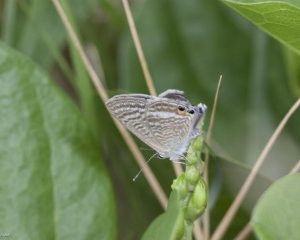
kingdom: Animalia
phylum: Arthropoda
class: Insecta
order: Lepidoptera
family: Lycaenidae
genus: Lampides
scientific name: Lampides boeticus
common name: Pea Blue
